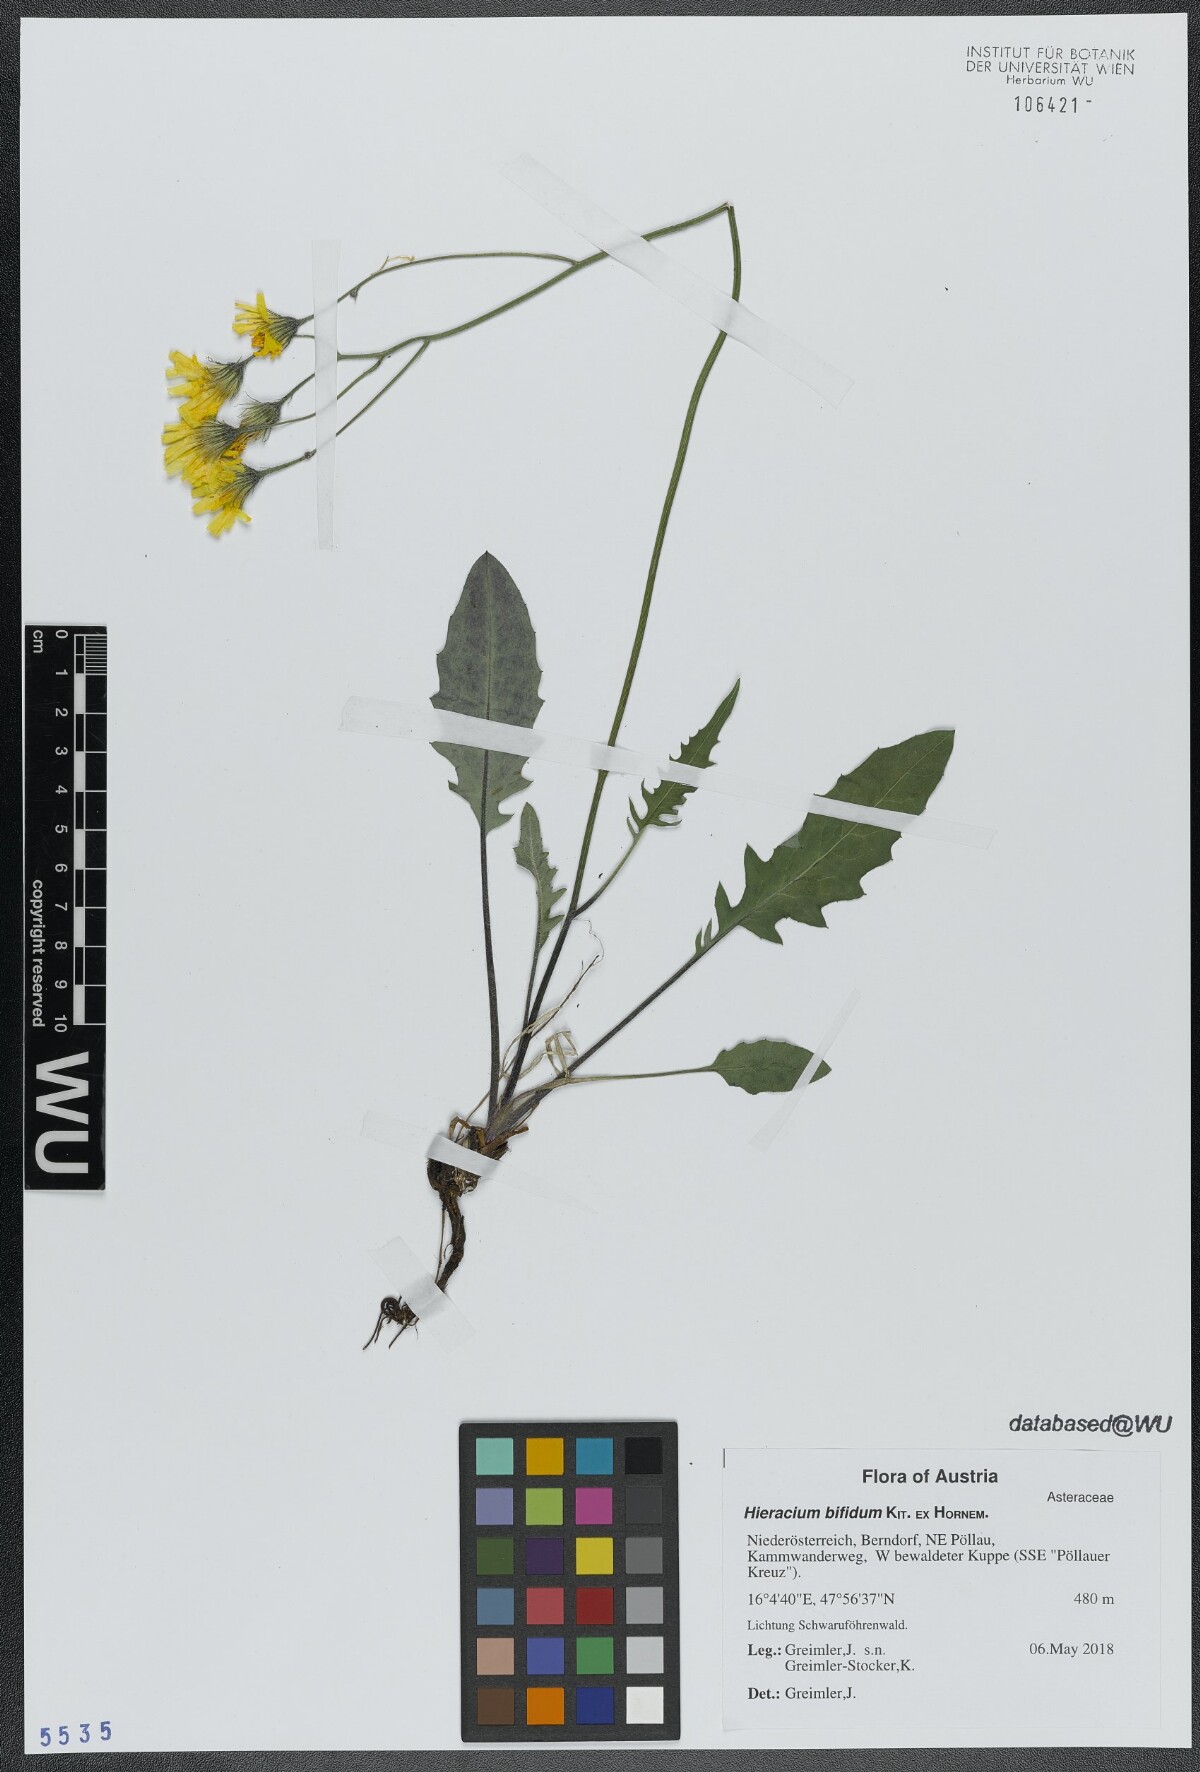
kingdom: Plantae
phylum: Tracheophyta
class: Magnoliopsida
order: Asterales
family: Asteraceae
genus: Hieracium
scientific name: Hieracium bifidum
